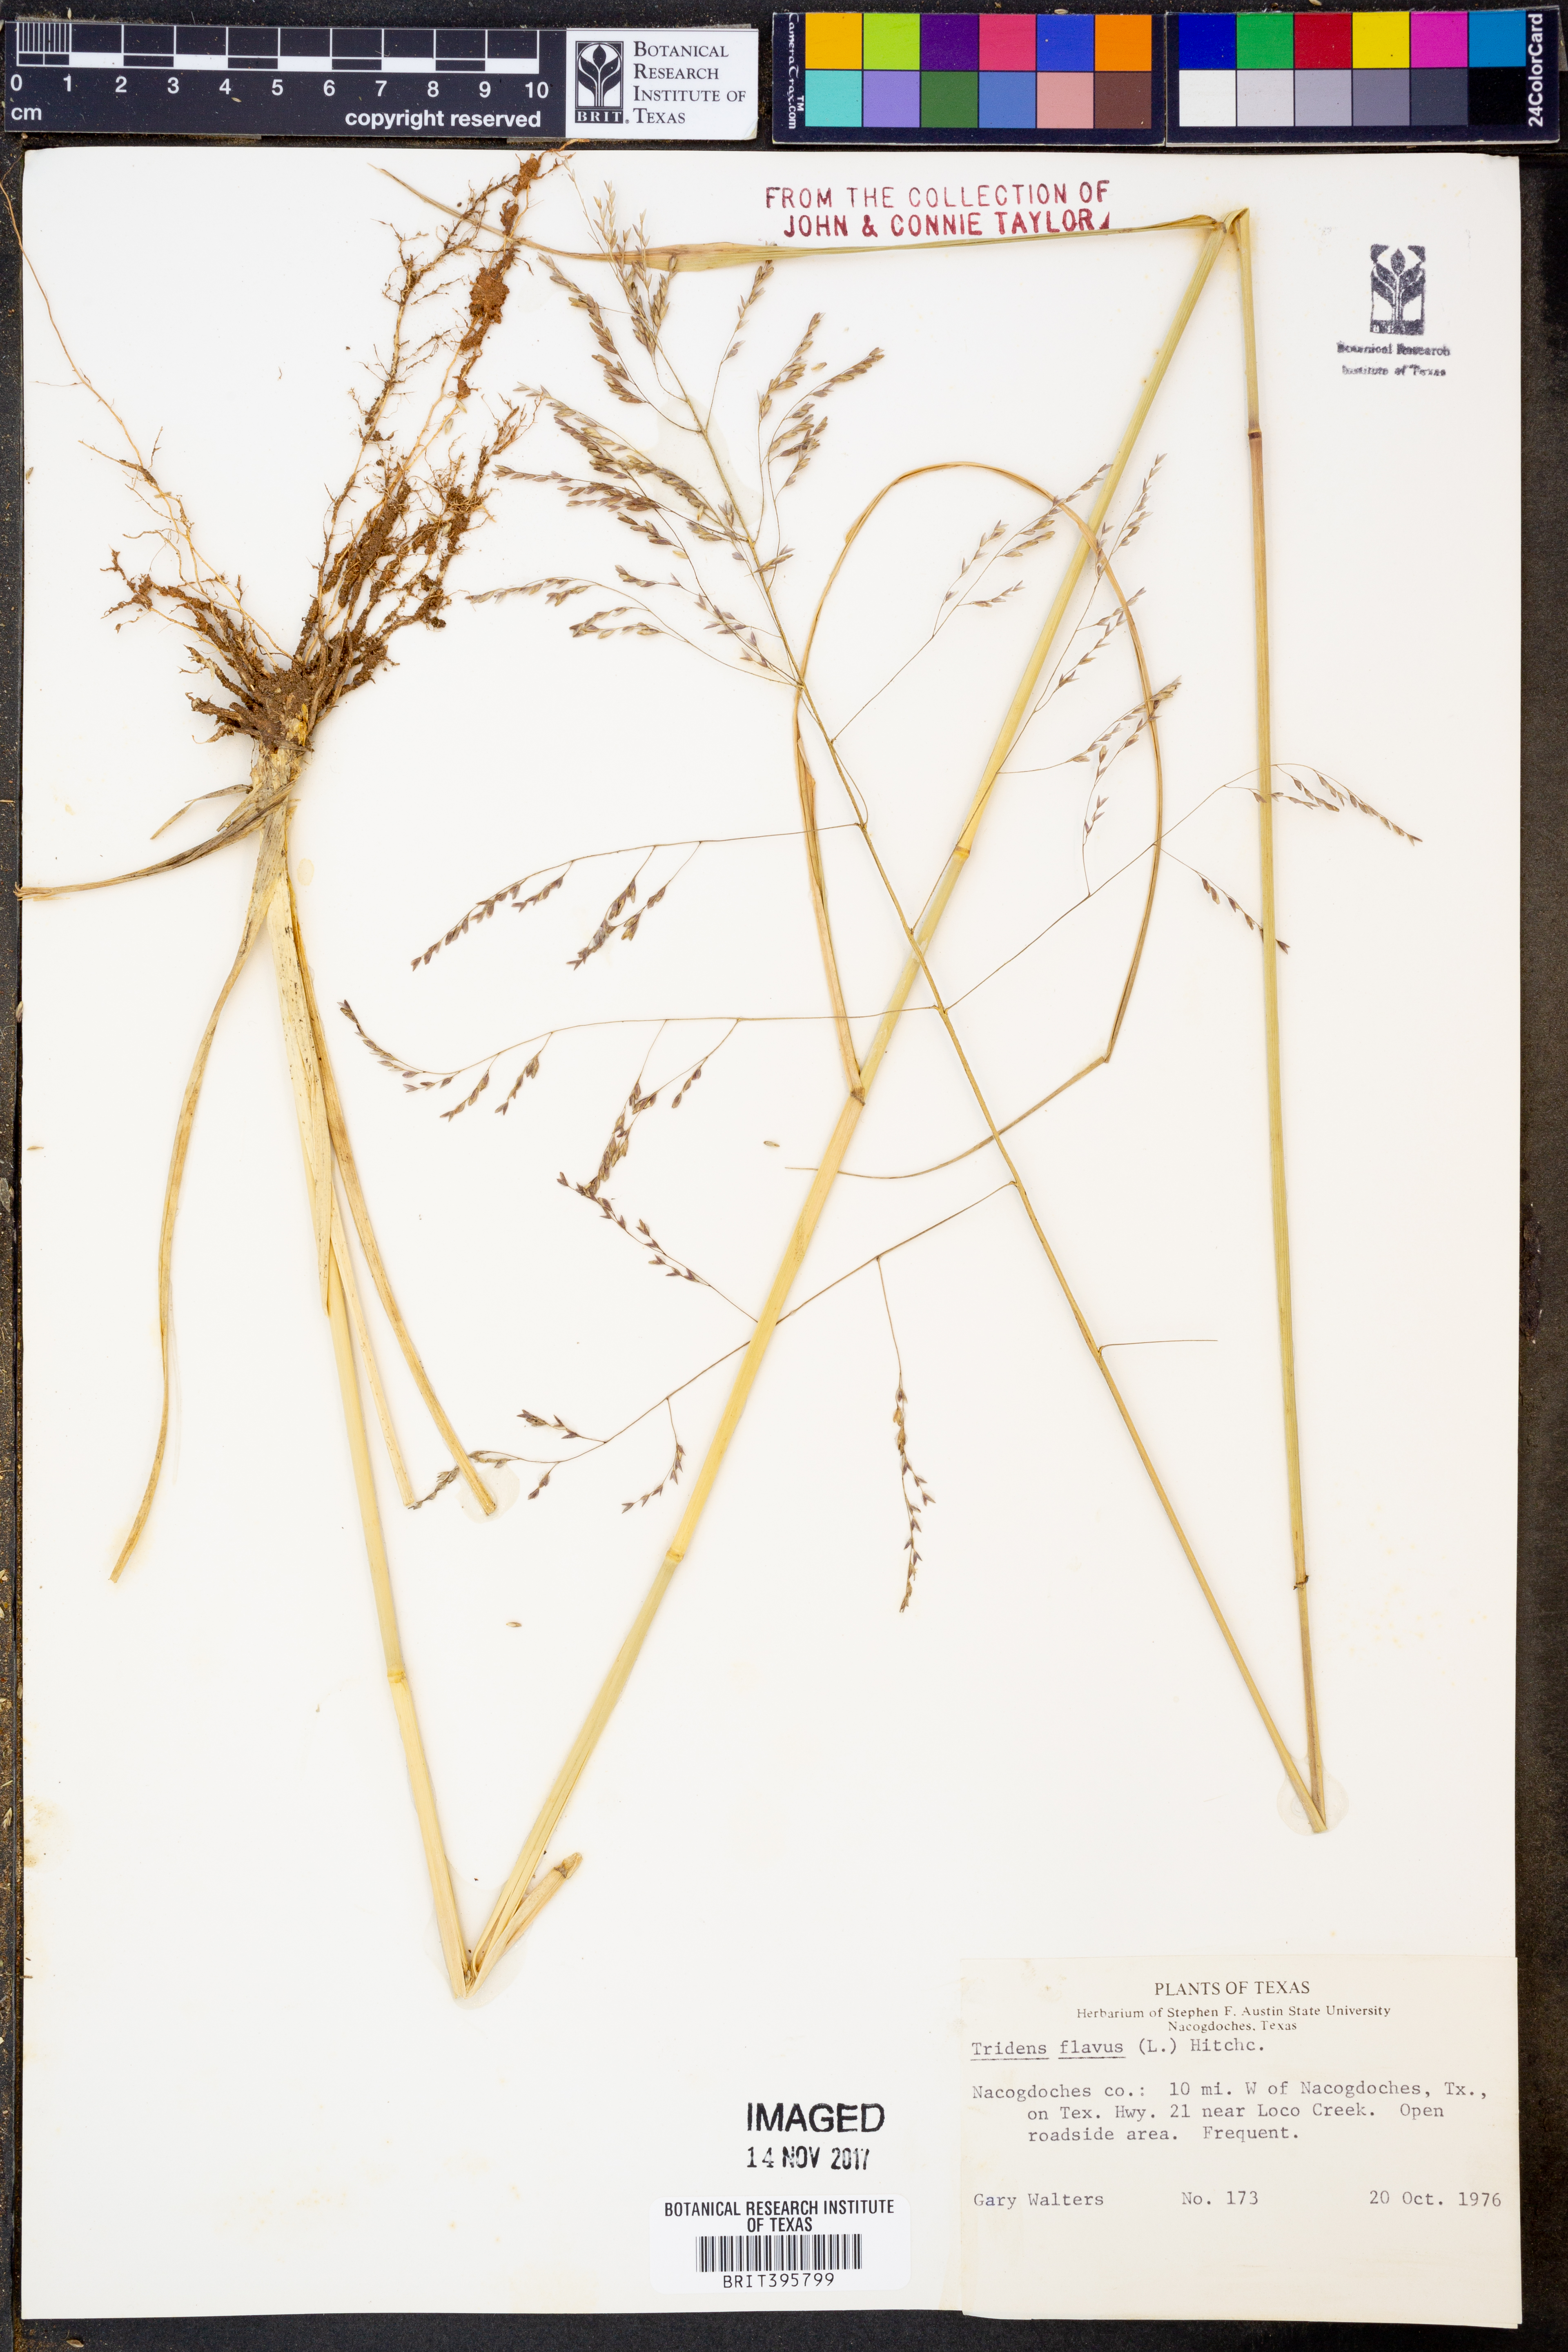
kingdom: Plantae
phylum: Tracheophyta
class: Liliopsida
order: Poales
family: Poaceae
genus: Tridens
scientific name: Tridens flavus
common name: Purpletop
